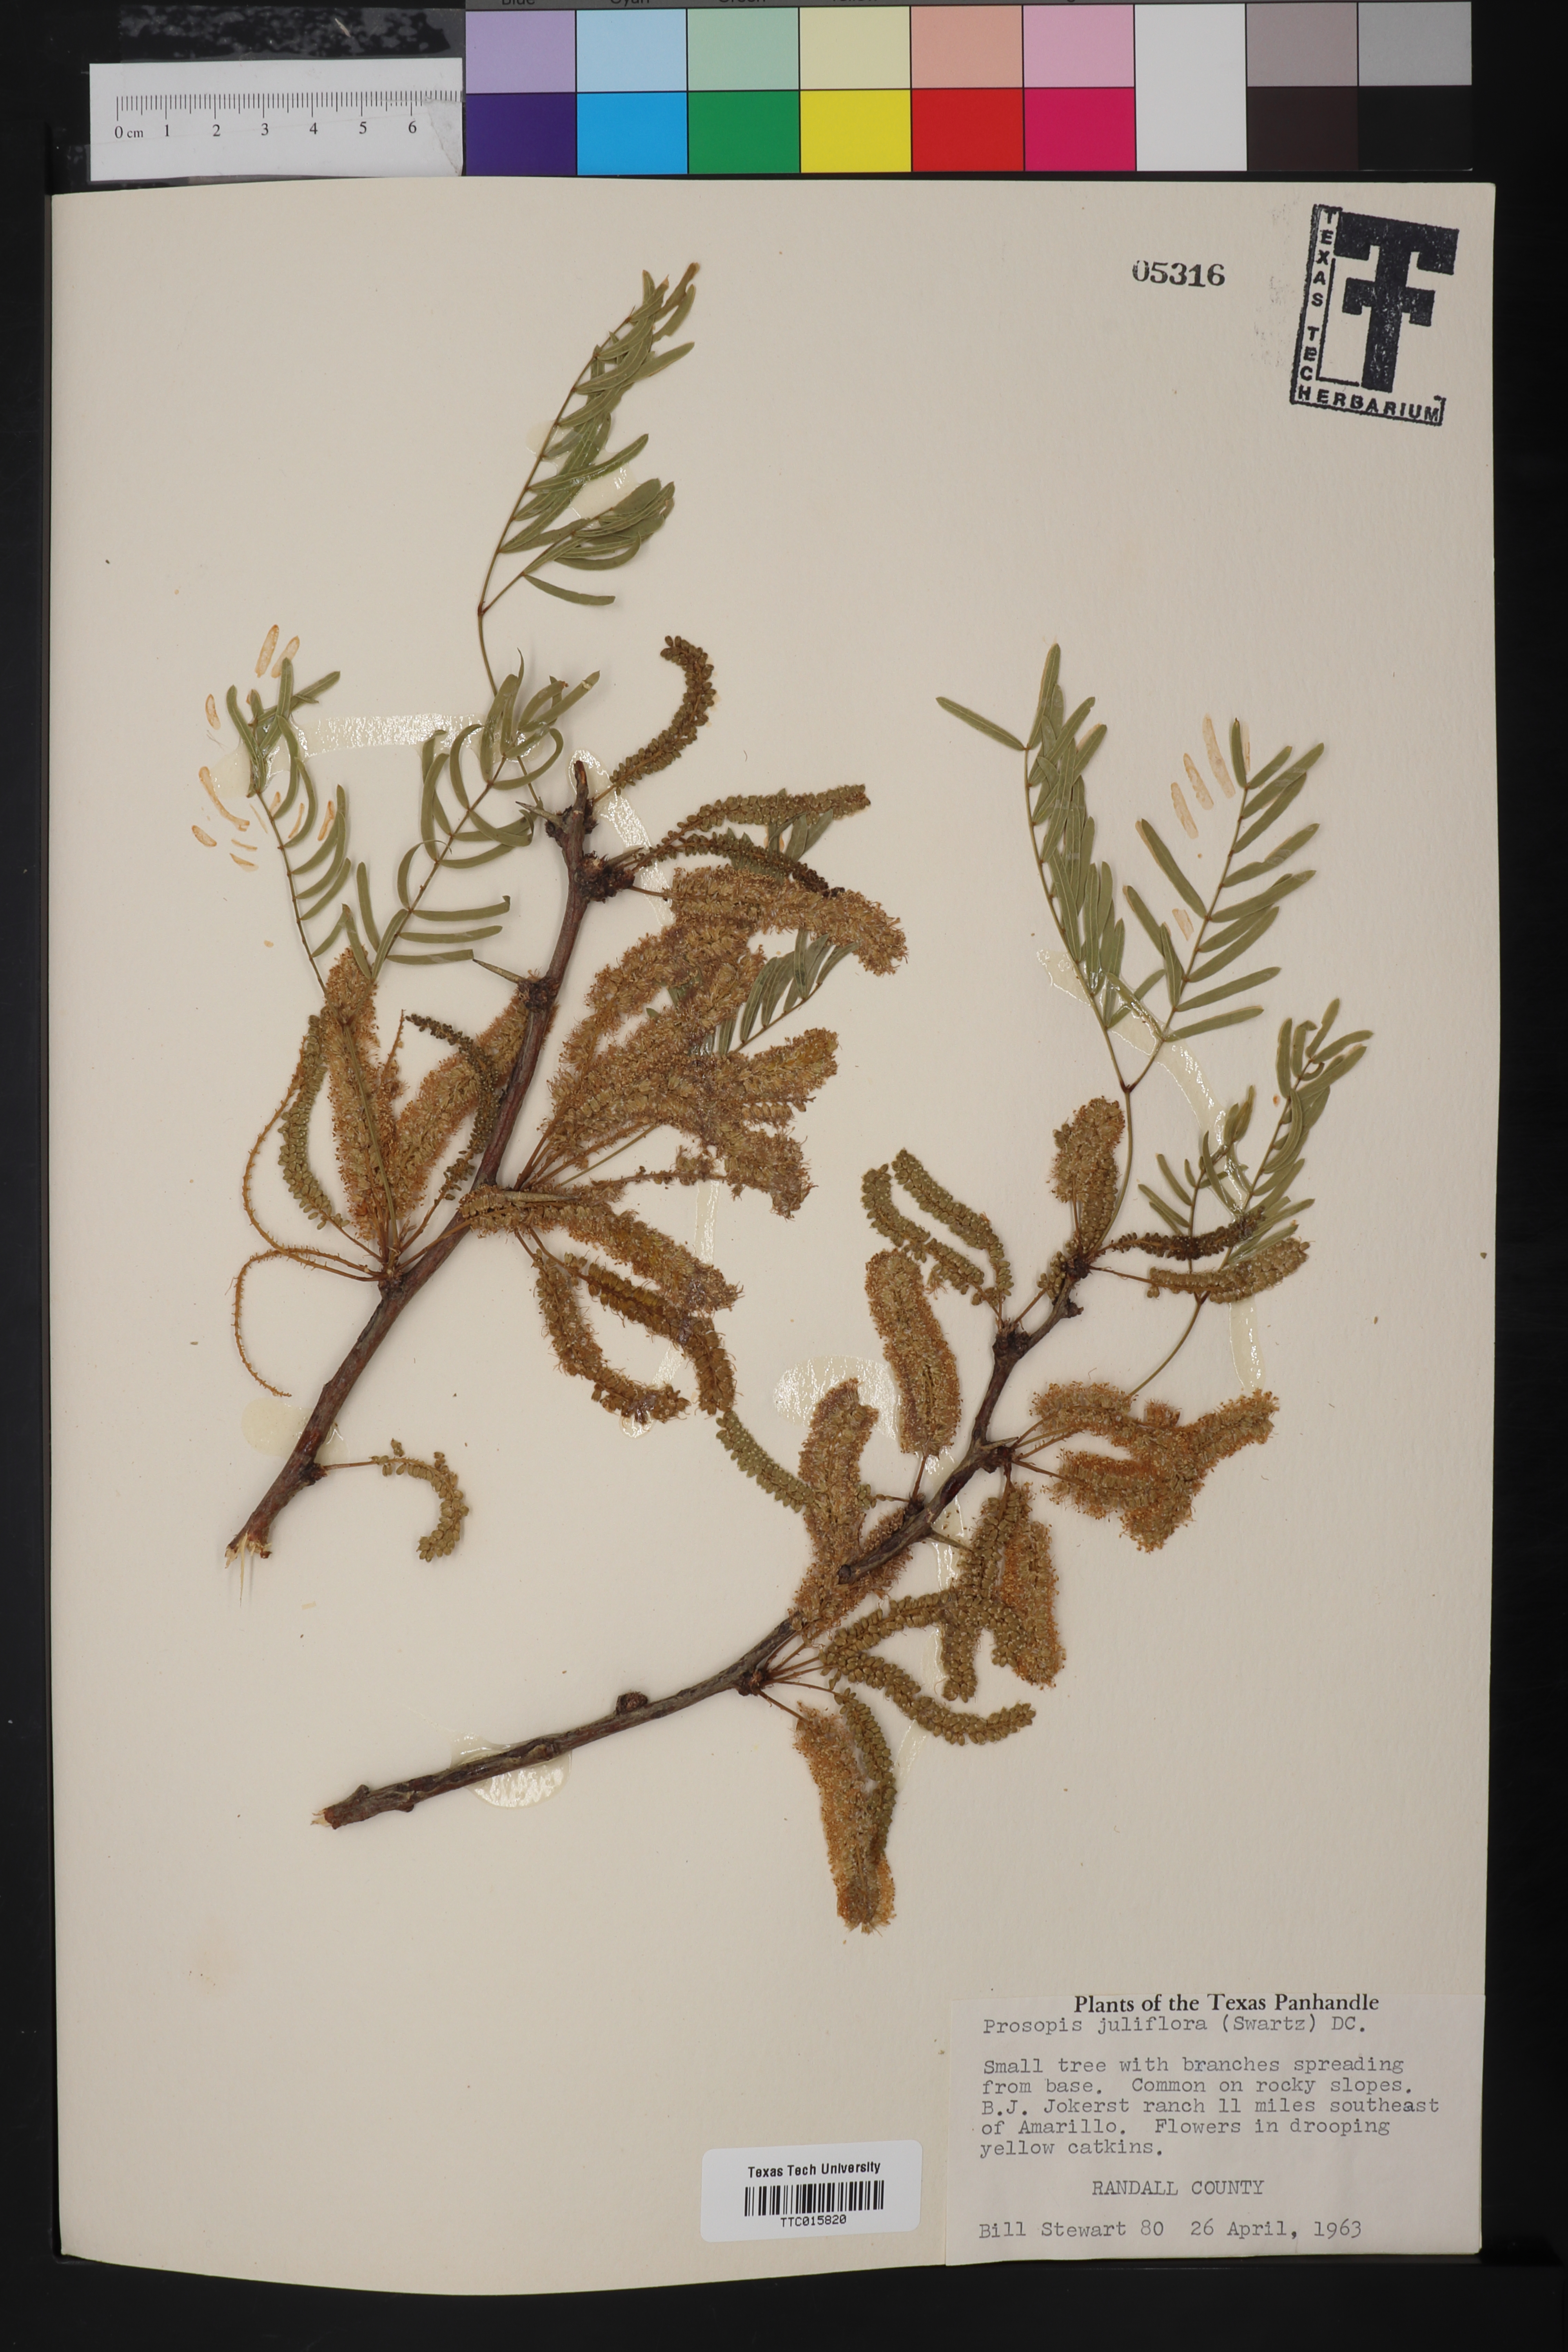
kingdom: Plantae
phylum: Tracheophyta
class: Magnoliopsida
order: Fabales
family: Fabaceae
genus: Prosopis
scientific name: Prosopis juliflora
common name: Mesquite
